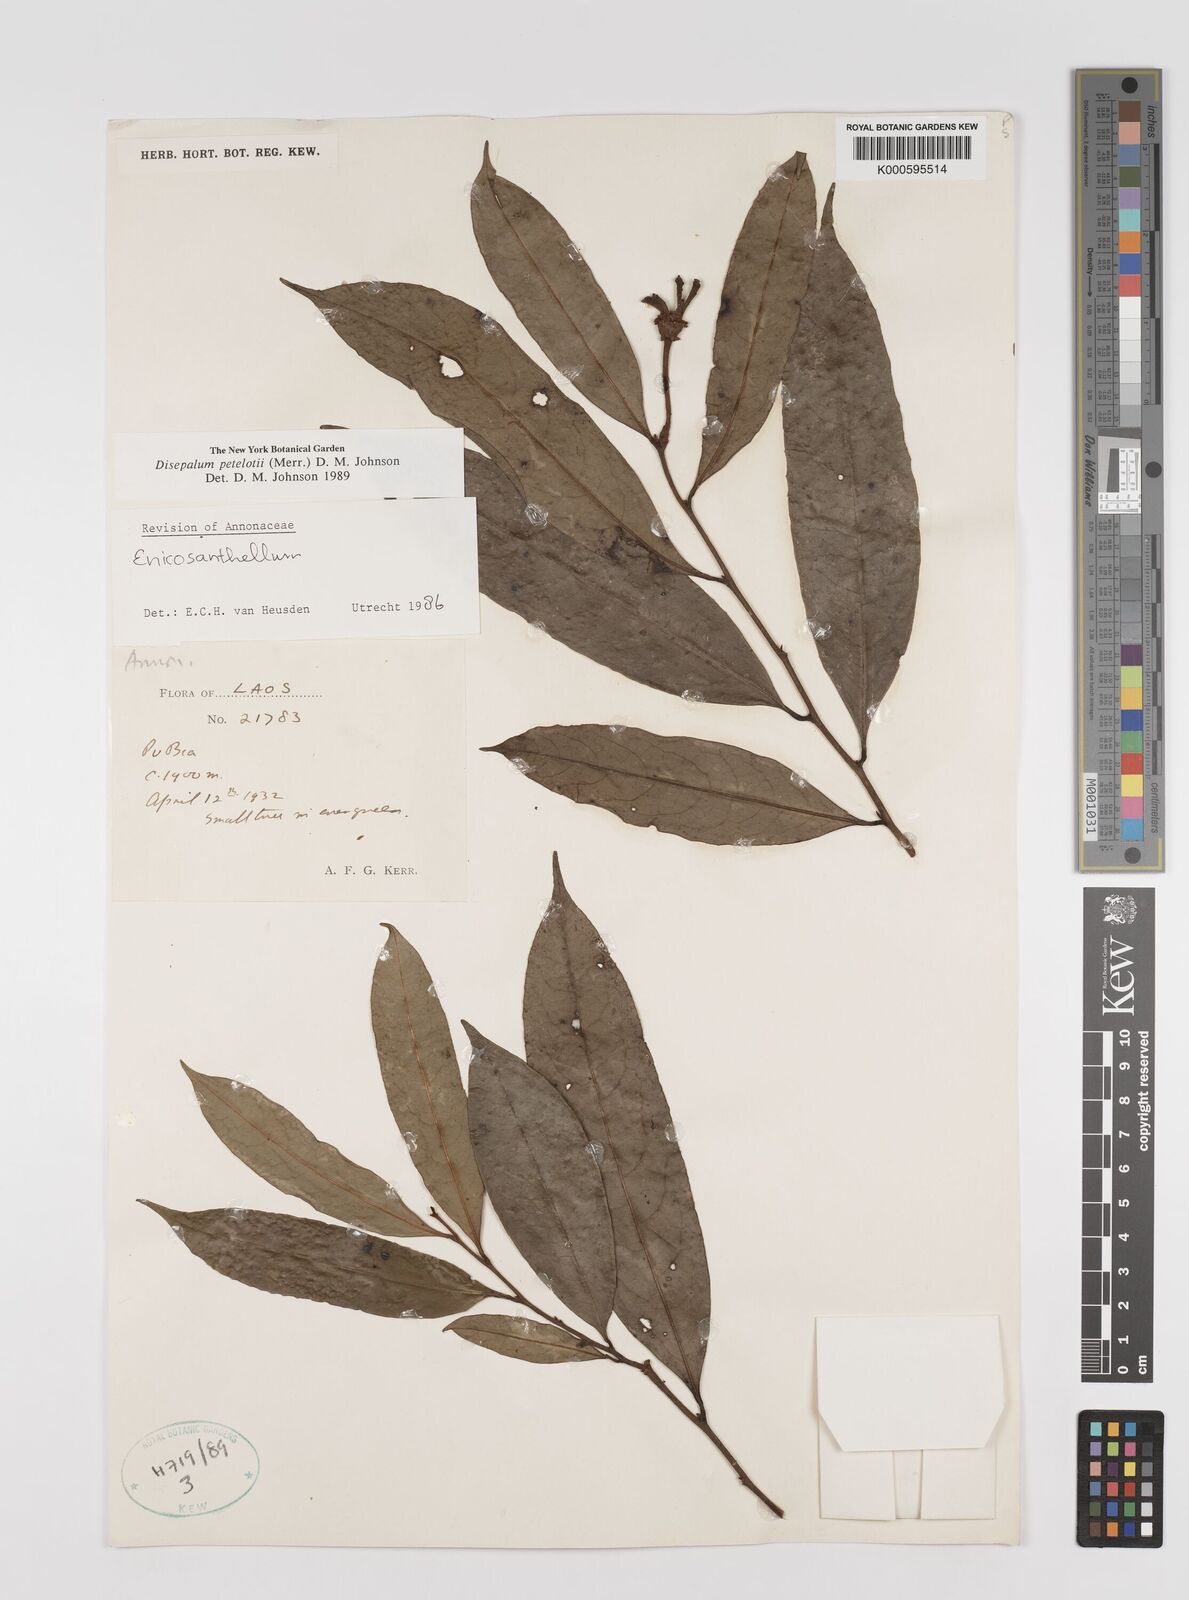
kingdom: Plantae
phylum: Tracheophyta
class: Magnoliopsida
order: Magnoliales
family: Annonaceae
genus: Disepalum
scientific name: Disepalum petelotii
